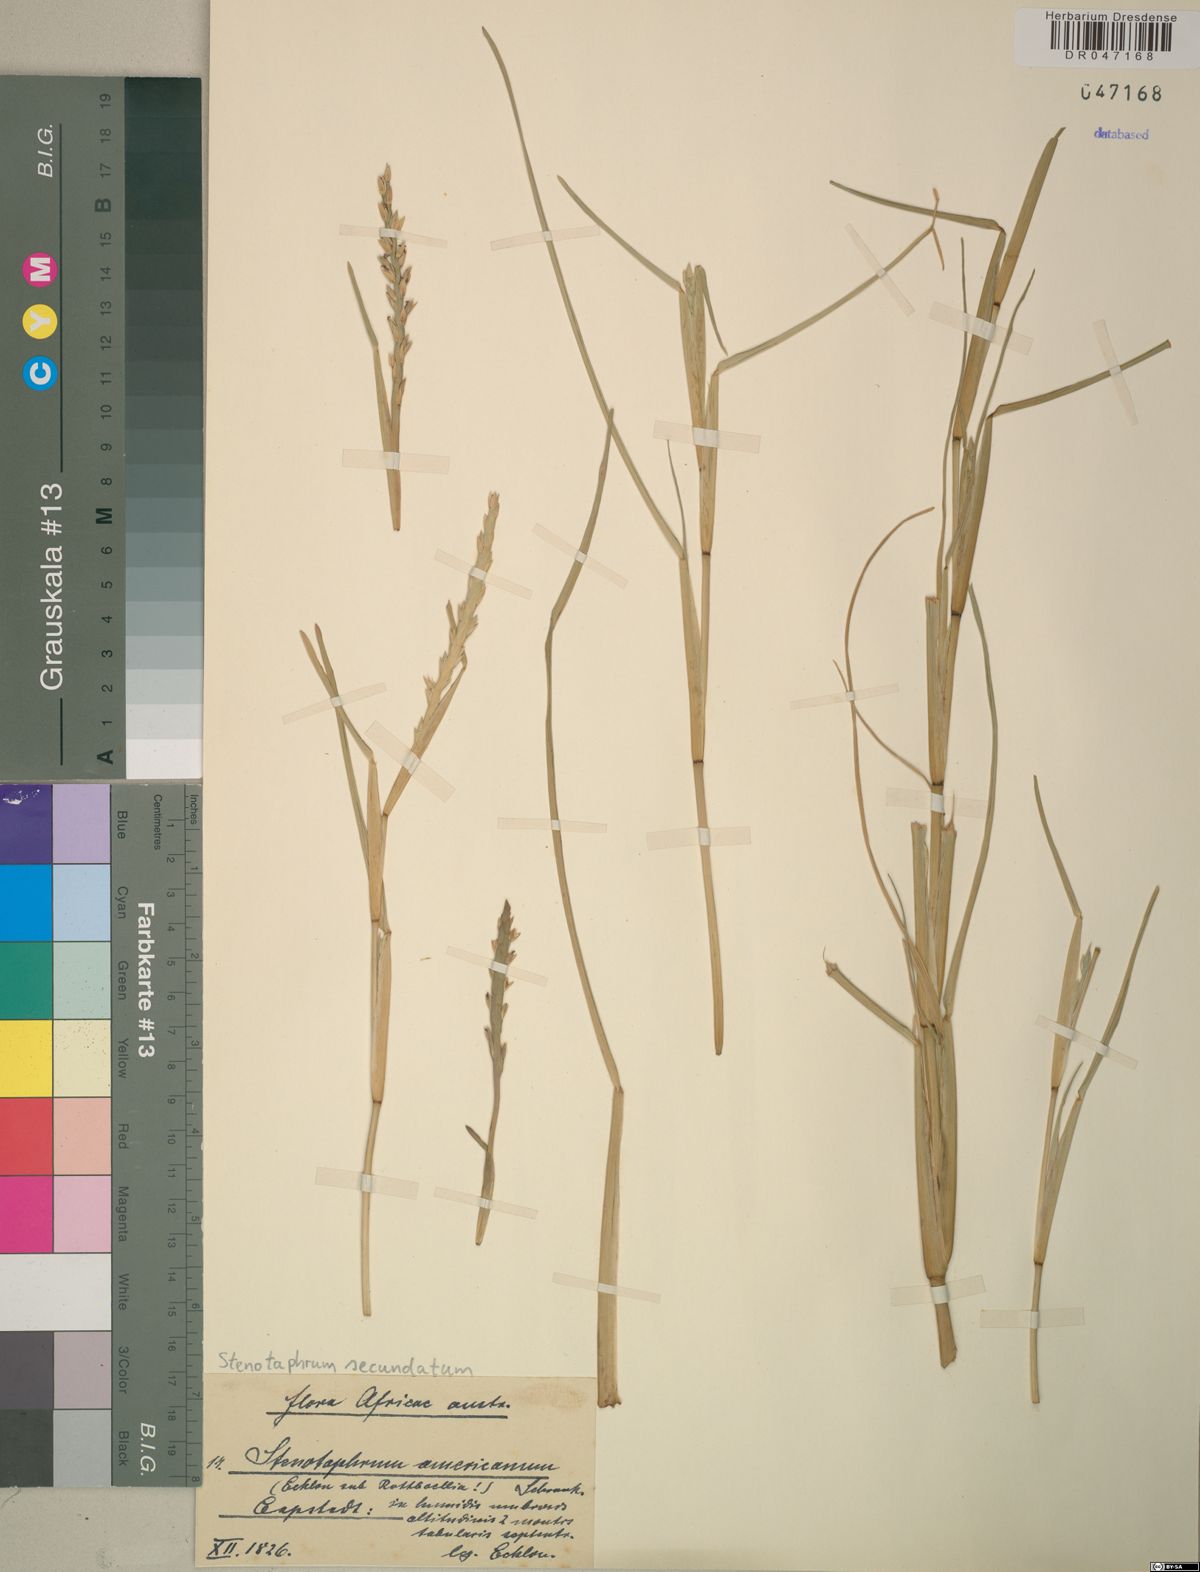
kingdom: Plantae
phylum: Tracheophyta
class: Liliopsida
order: Poales
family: Poaceae
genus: Stenotaphrum
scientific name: Stenotaphrum secundatum
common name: St. augustine grass
